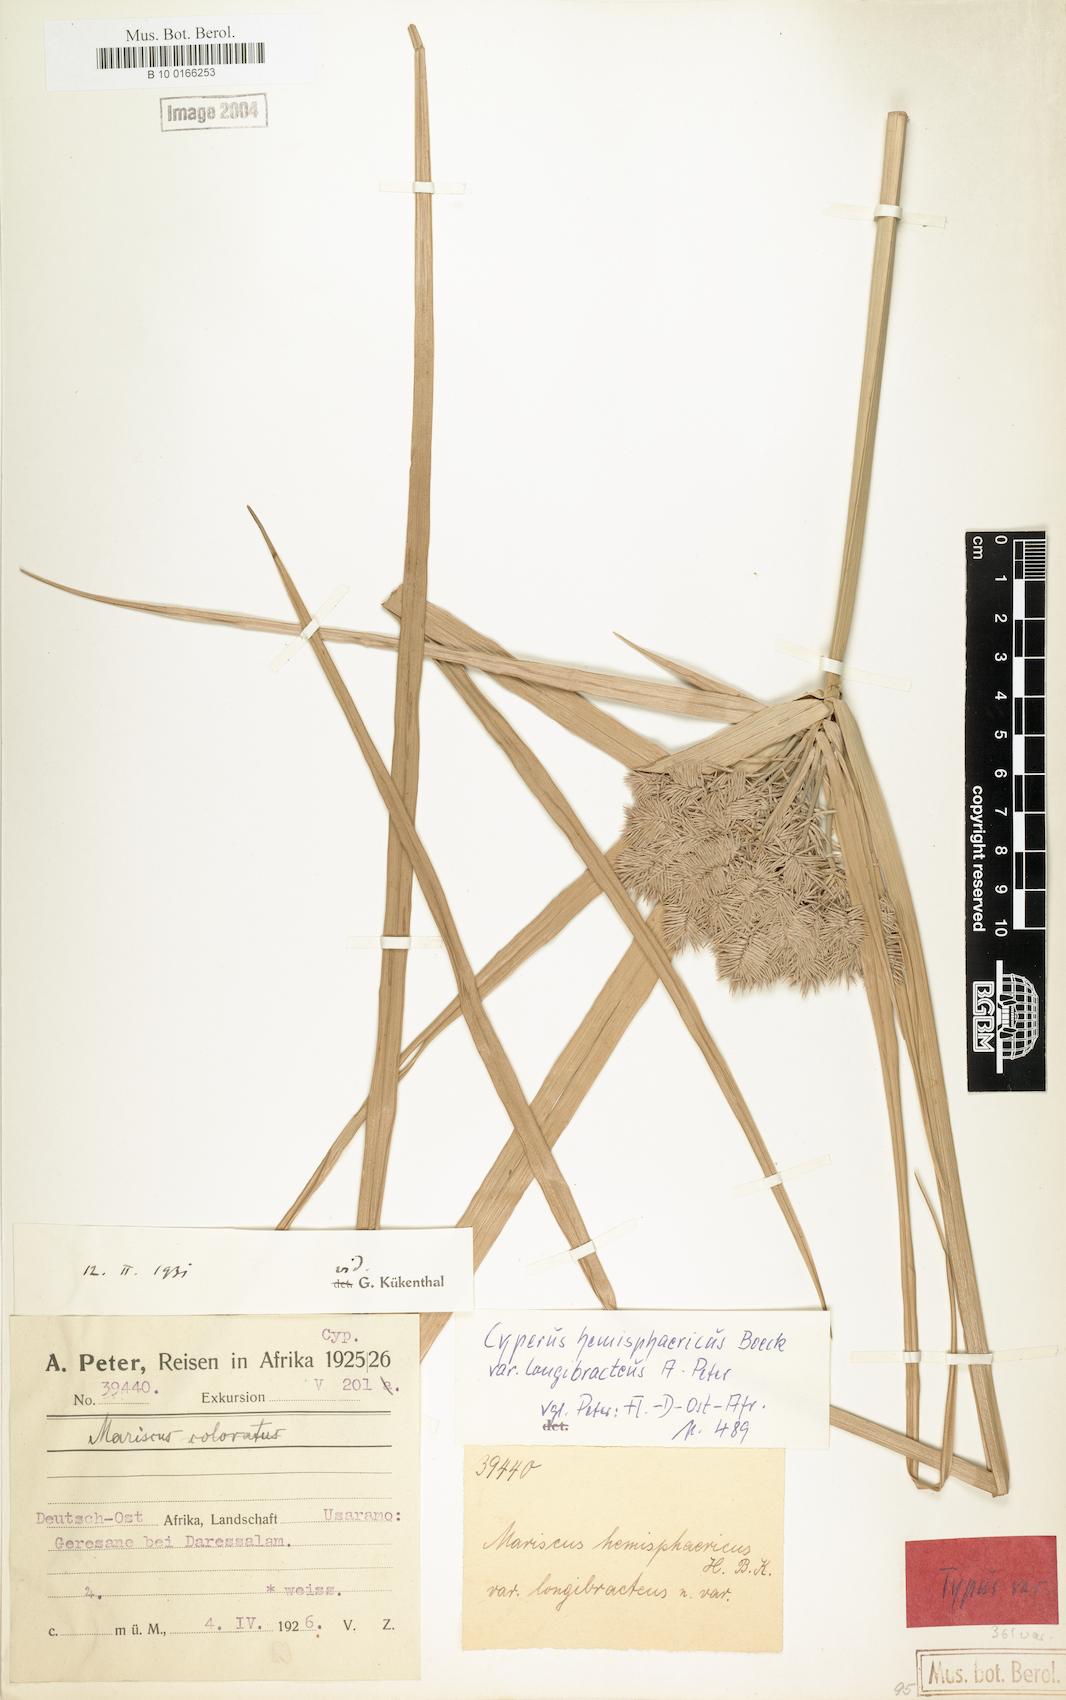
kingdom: Plantae
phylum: Tracheophyta
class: Liliopsida
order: Poales
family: Cyperaceae
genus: Cyperus
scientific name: Cyperus hemisphaericus
